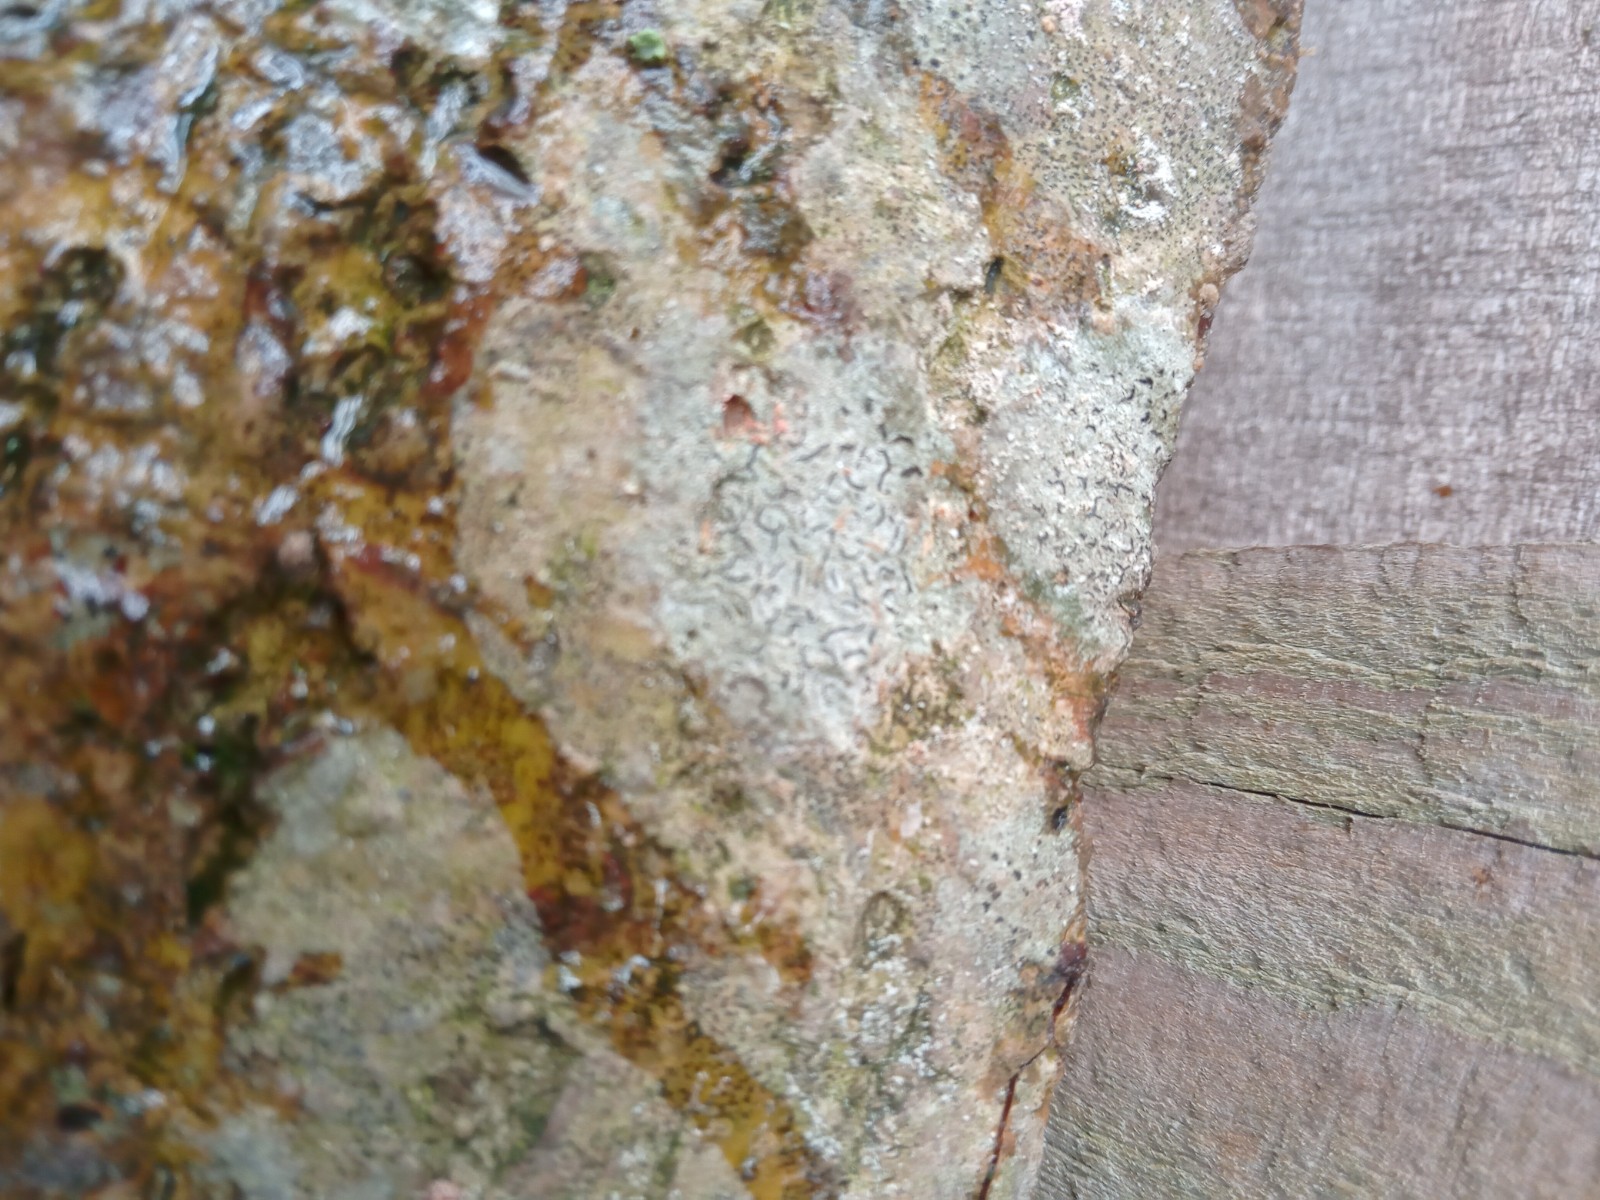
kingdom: Fungi
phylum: Ascomycota
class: Lecanoromycetes
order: Ostropales
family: Graphidaceae
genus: Graphis
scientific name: Graphis scripta
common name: almindelig skriftlav
